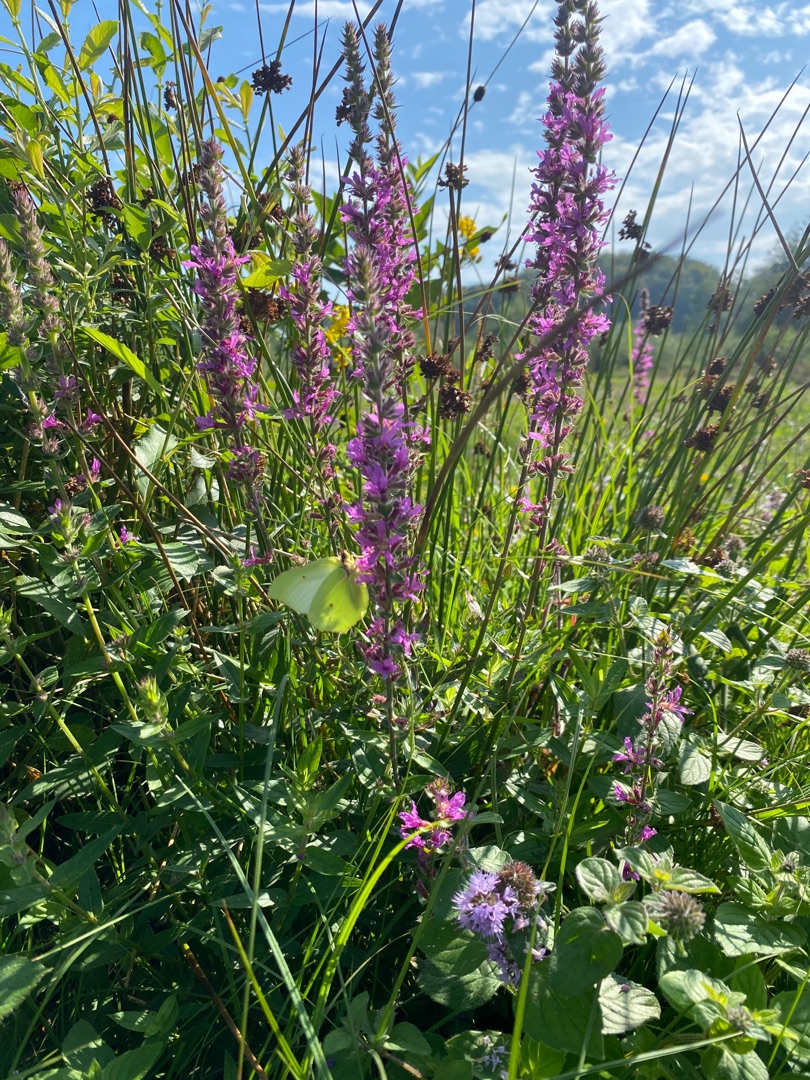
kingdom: Animalia
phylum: Arthropoda
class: Insecta
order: Lepidoptera
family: Pieridae
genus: Gonepteryx
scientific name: Gonepteryx rhamni
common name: Citronsommerfugl
